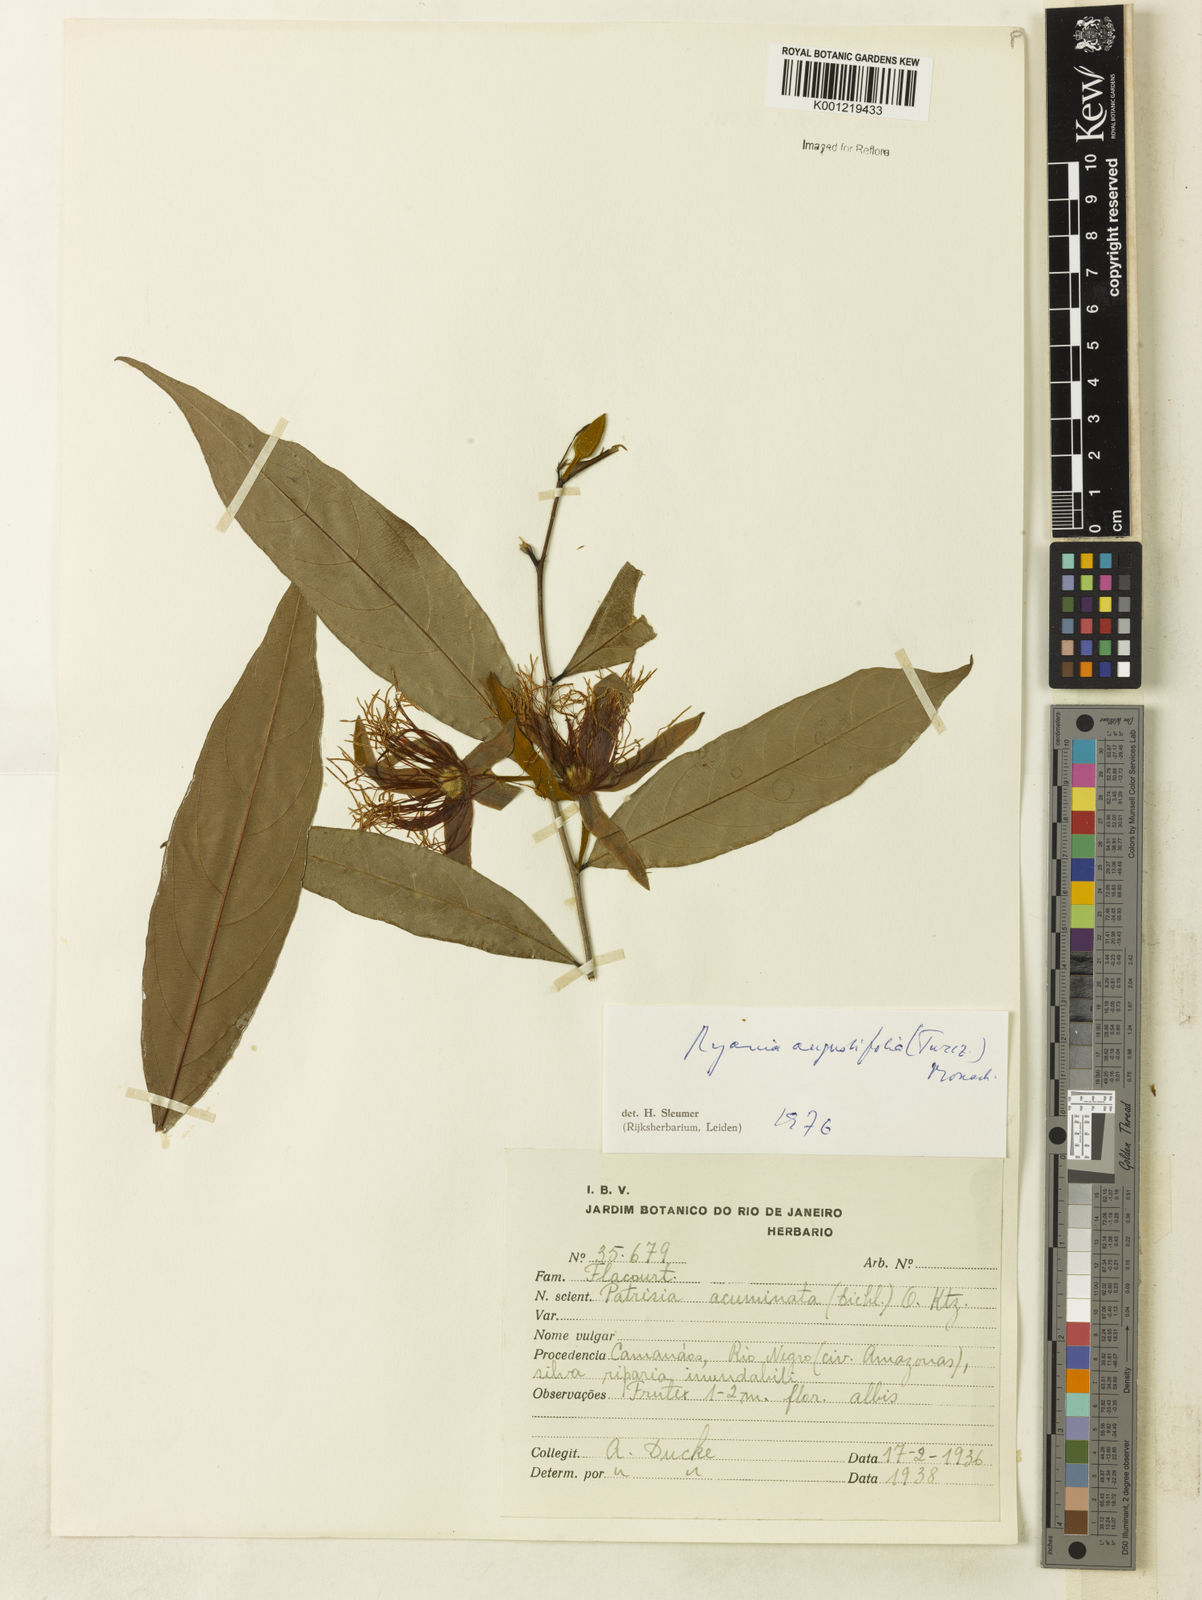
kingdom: Plantae
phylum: Tracheophyta
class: Magnoliopsida
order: Malpighiales
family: Salicaceae
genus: Ryania
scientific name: Ryania angustifolia
